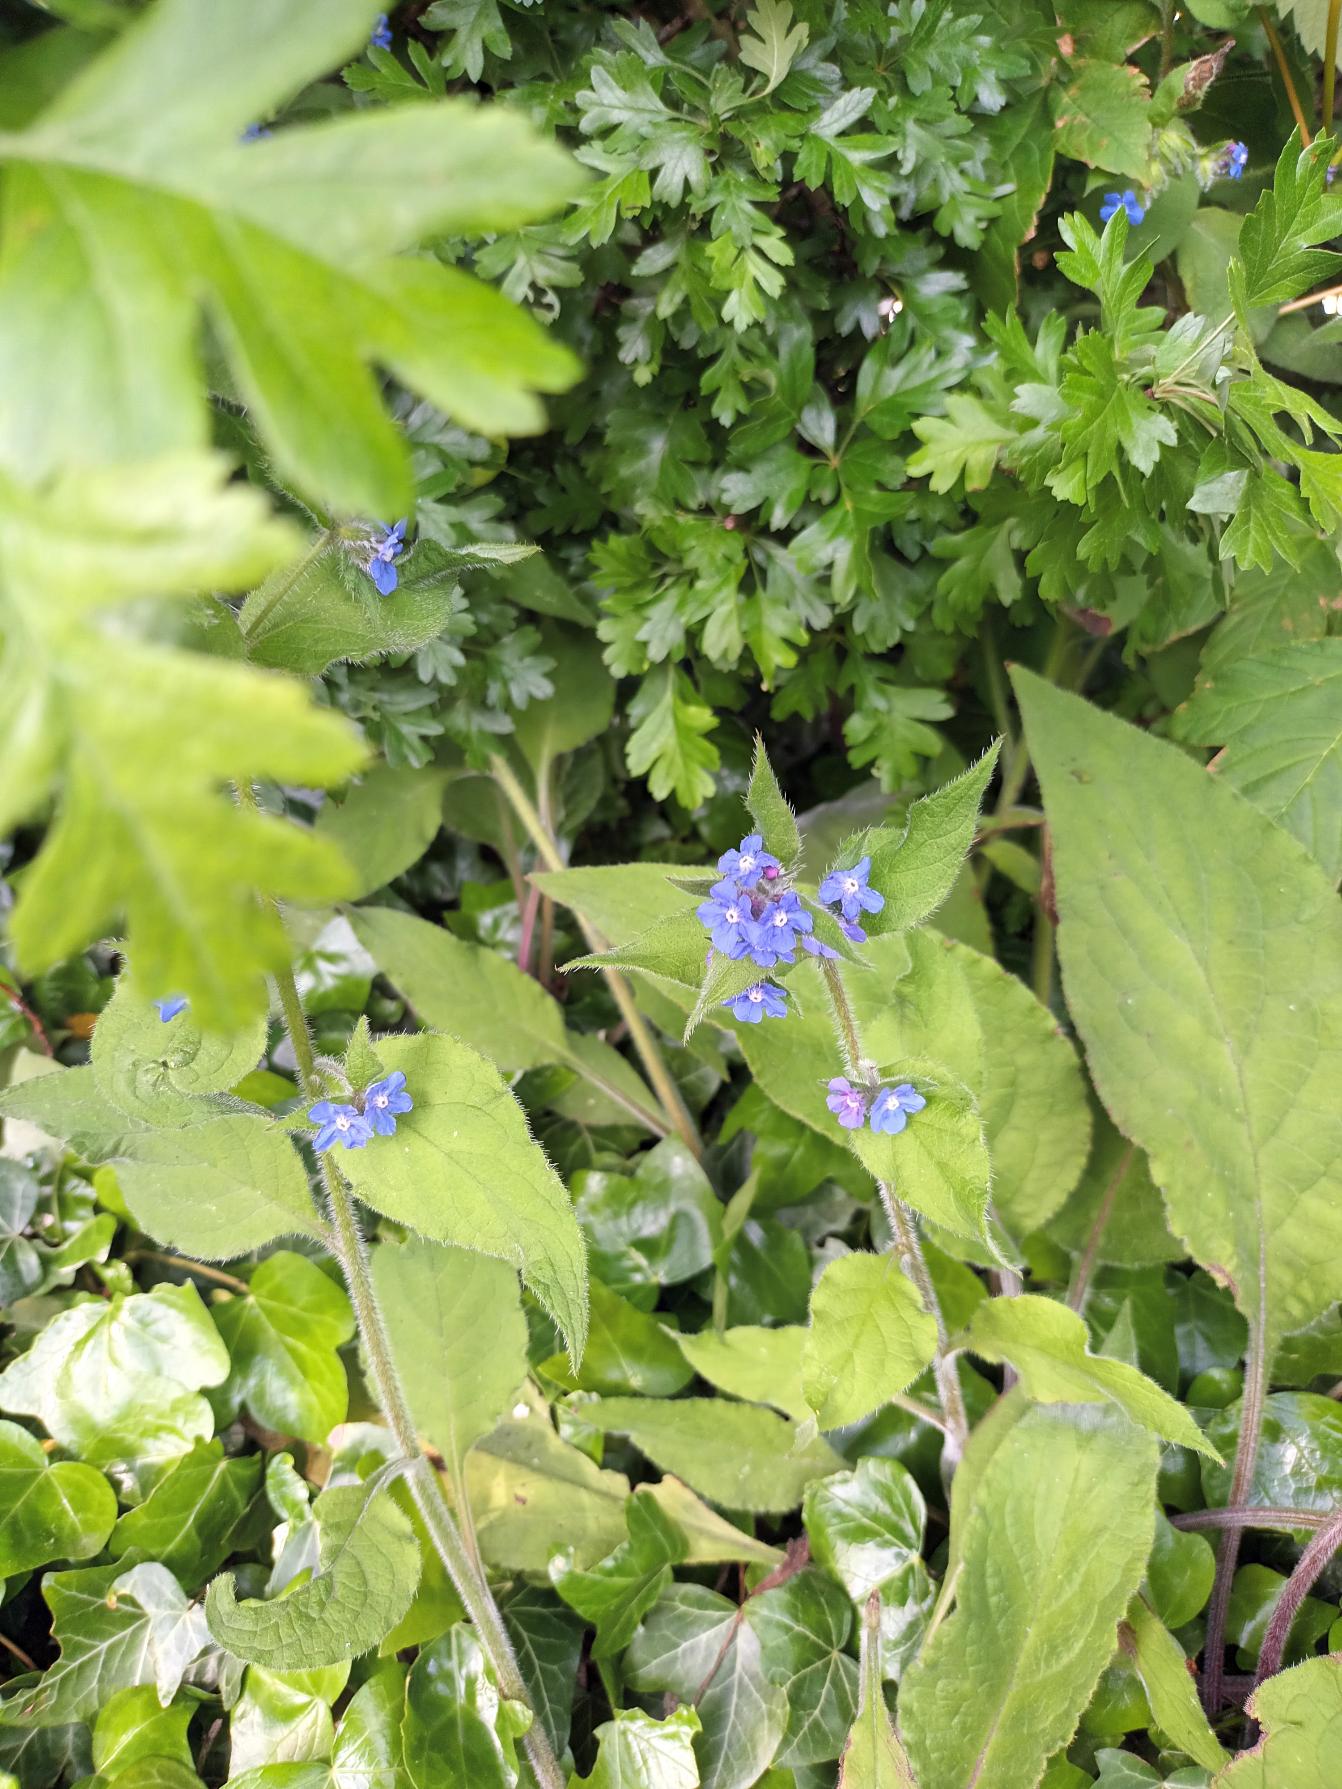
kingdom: Plantae
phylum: Tracheophyta
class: Magnoliopsida
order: Boraginales
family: Boraginaceae
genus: Pentaglottis
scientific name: Pentaglottis sempervirens
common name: Femtunge
